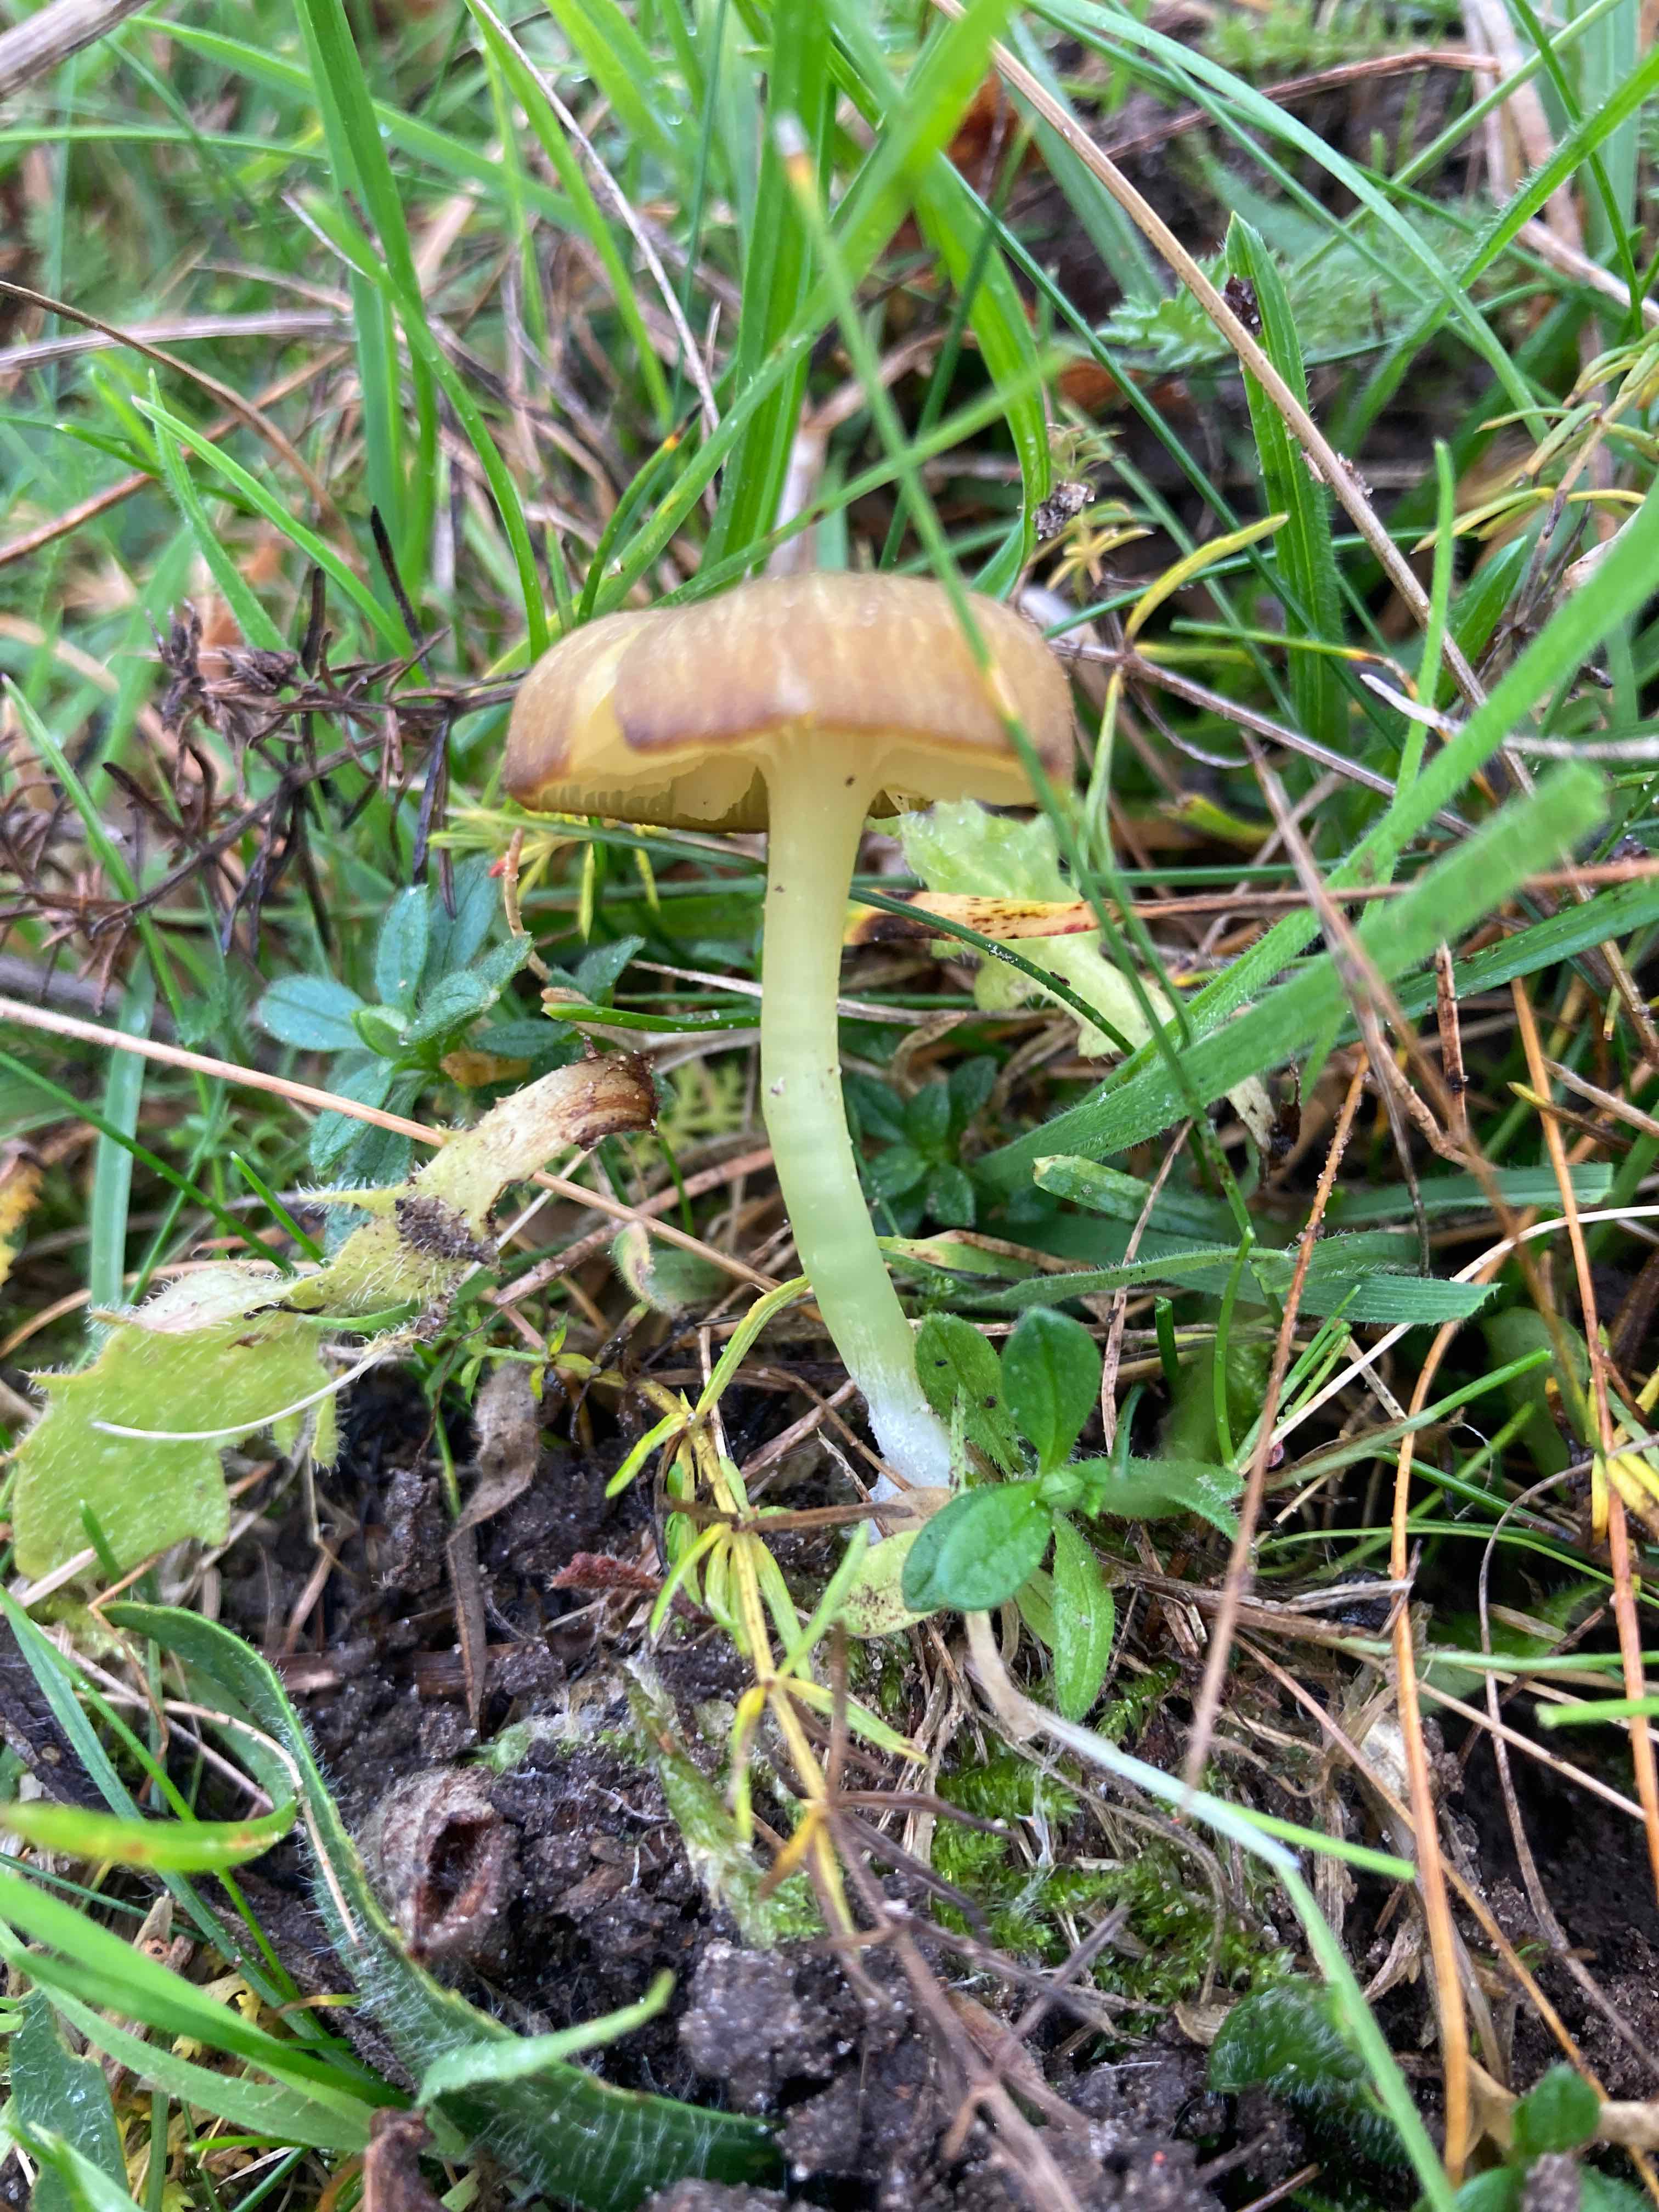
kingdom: Fungi
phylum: Basidiomycota
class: Agaricomycetes
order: Agaricales
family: Entolomataceae
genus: Entoloma
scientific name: Entoloma incanum
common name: grøngul rødblad
